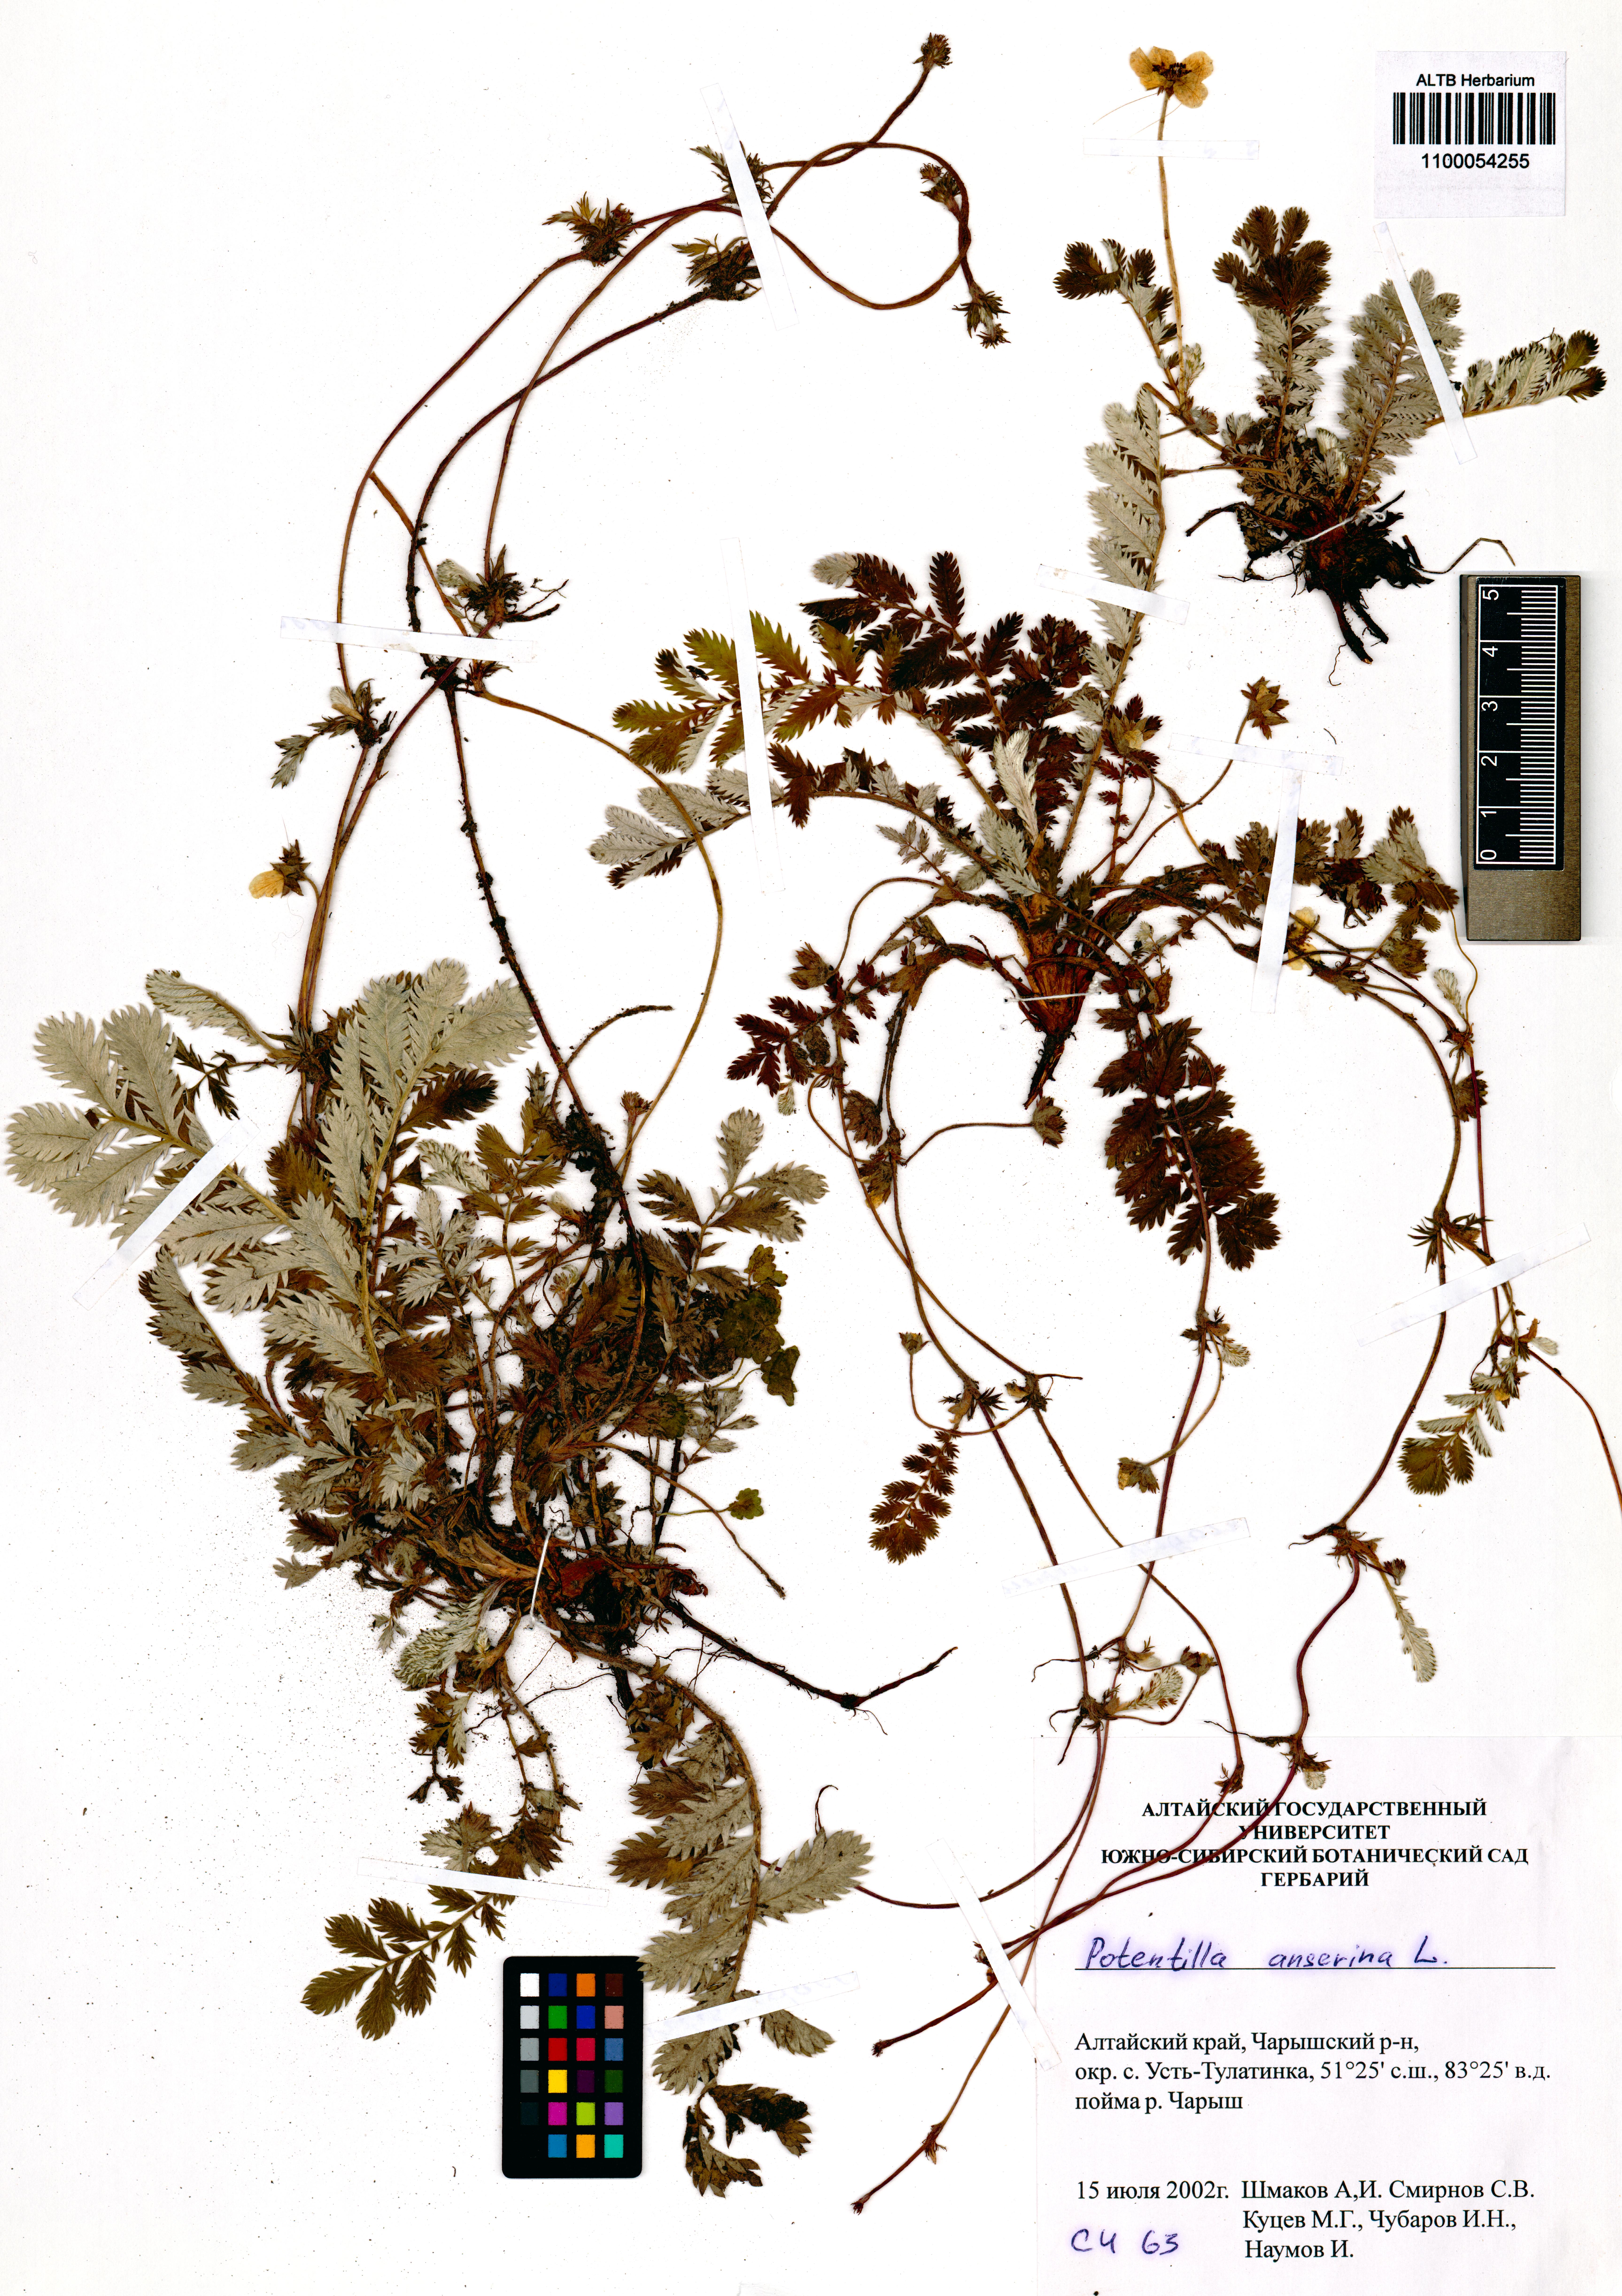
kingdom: Plantae
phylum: Tracheophyta
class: Magnoliopsida
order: Rosales
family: Rosaceae
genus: Argentina
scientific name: Argentina anserina
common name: Common silverweed
